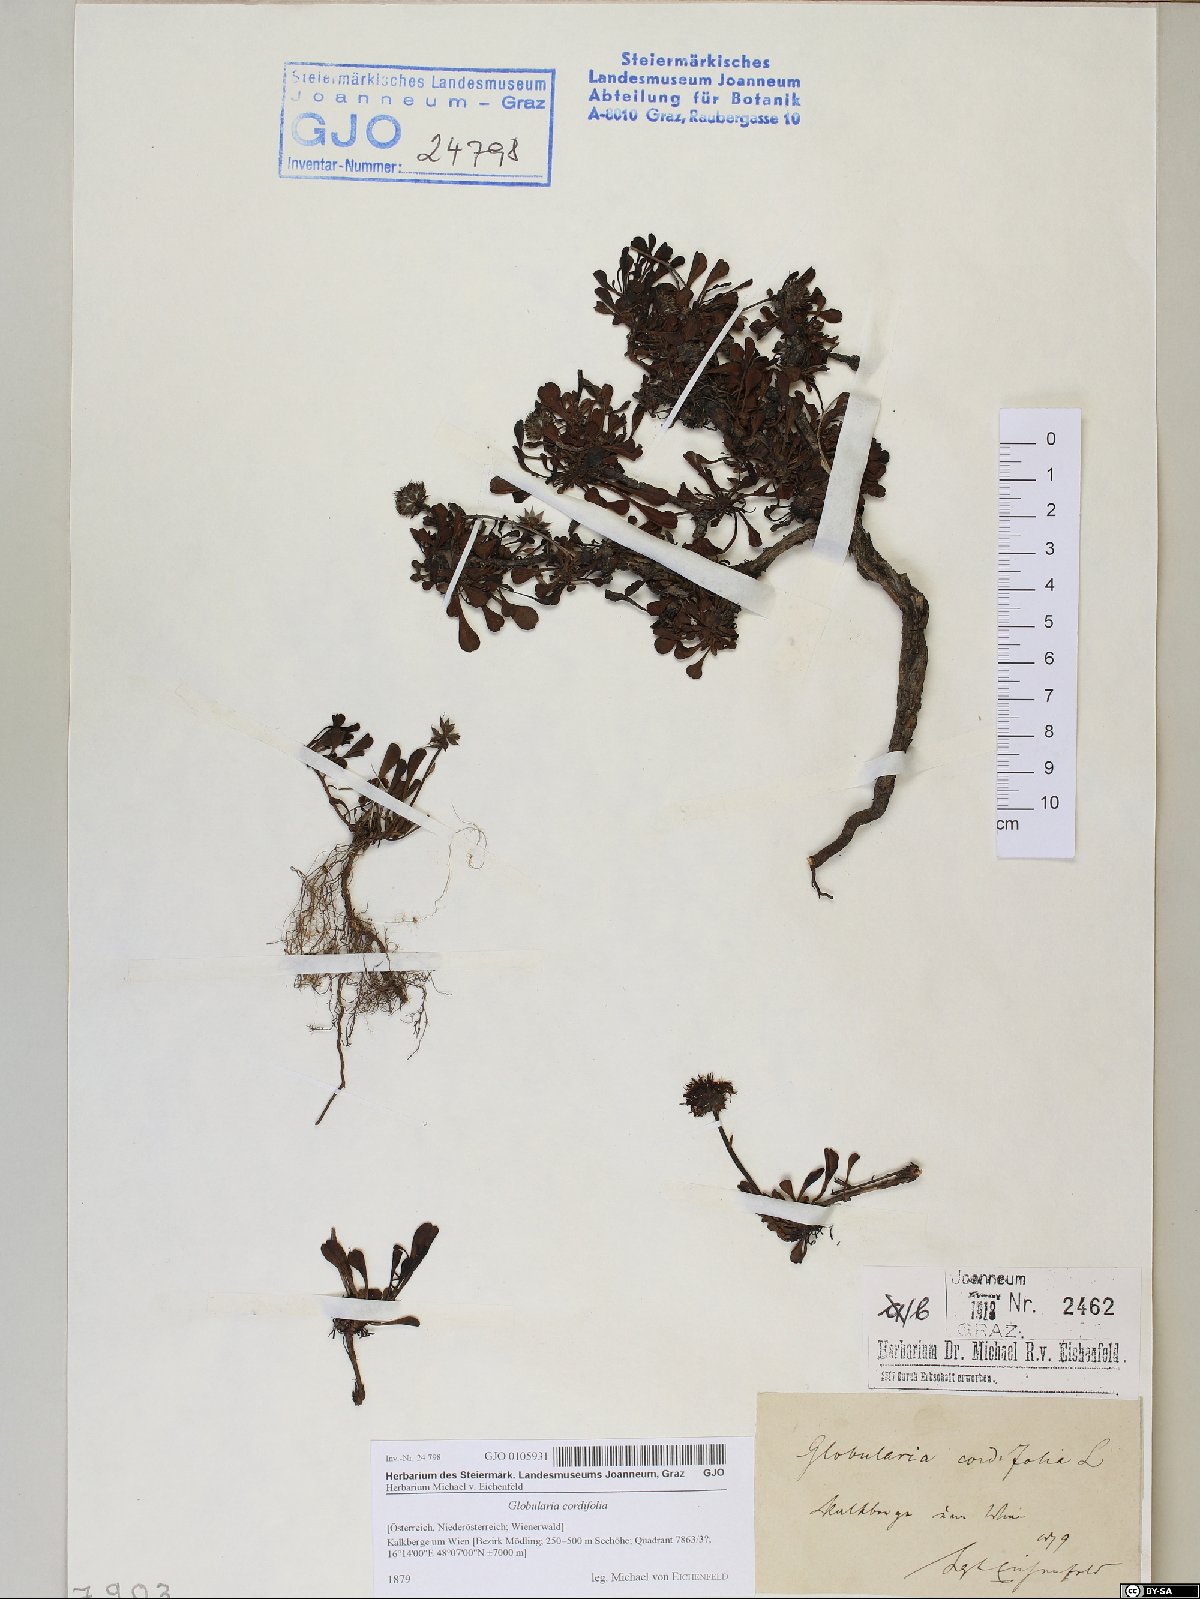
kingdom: Plantae
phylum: Tracheophyta
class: Magnoliopsida
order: Lamiales
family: Plantaginaceae
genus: Globularia
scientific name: Globularia cordifolia
